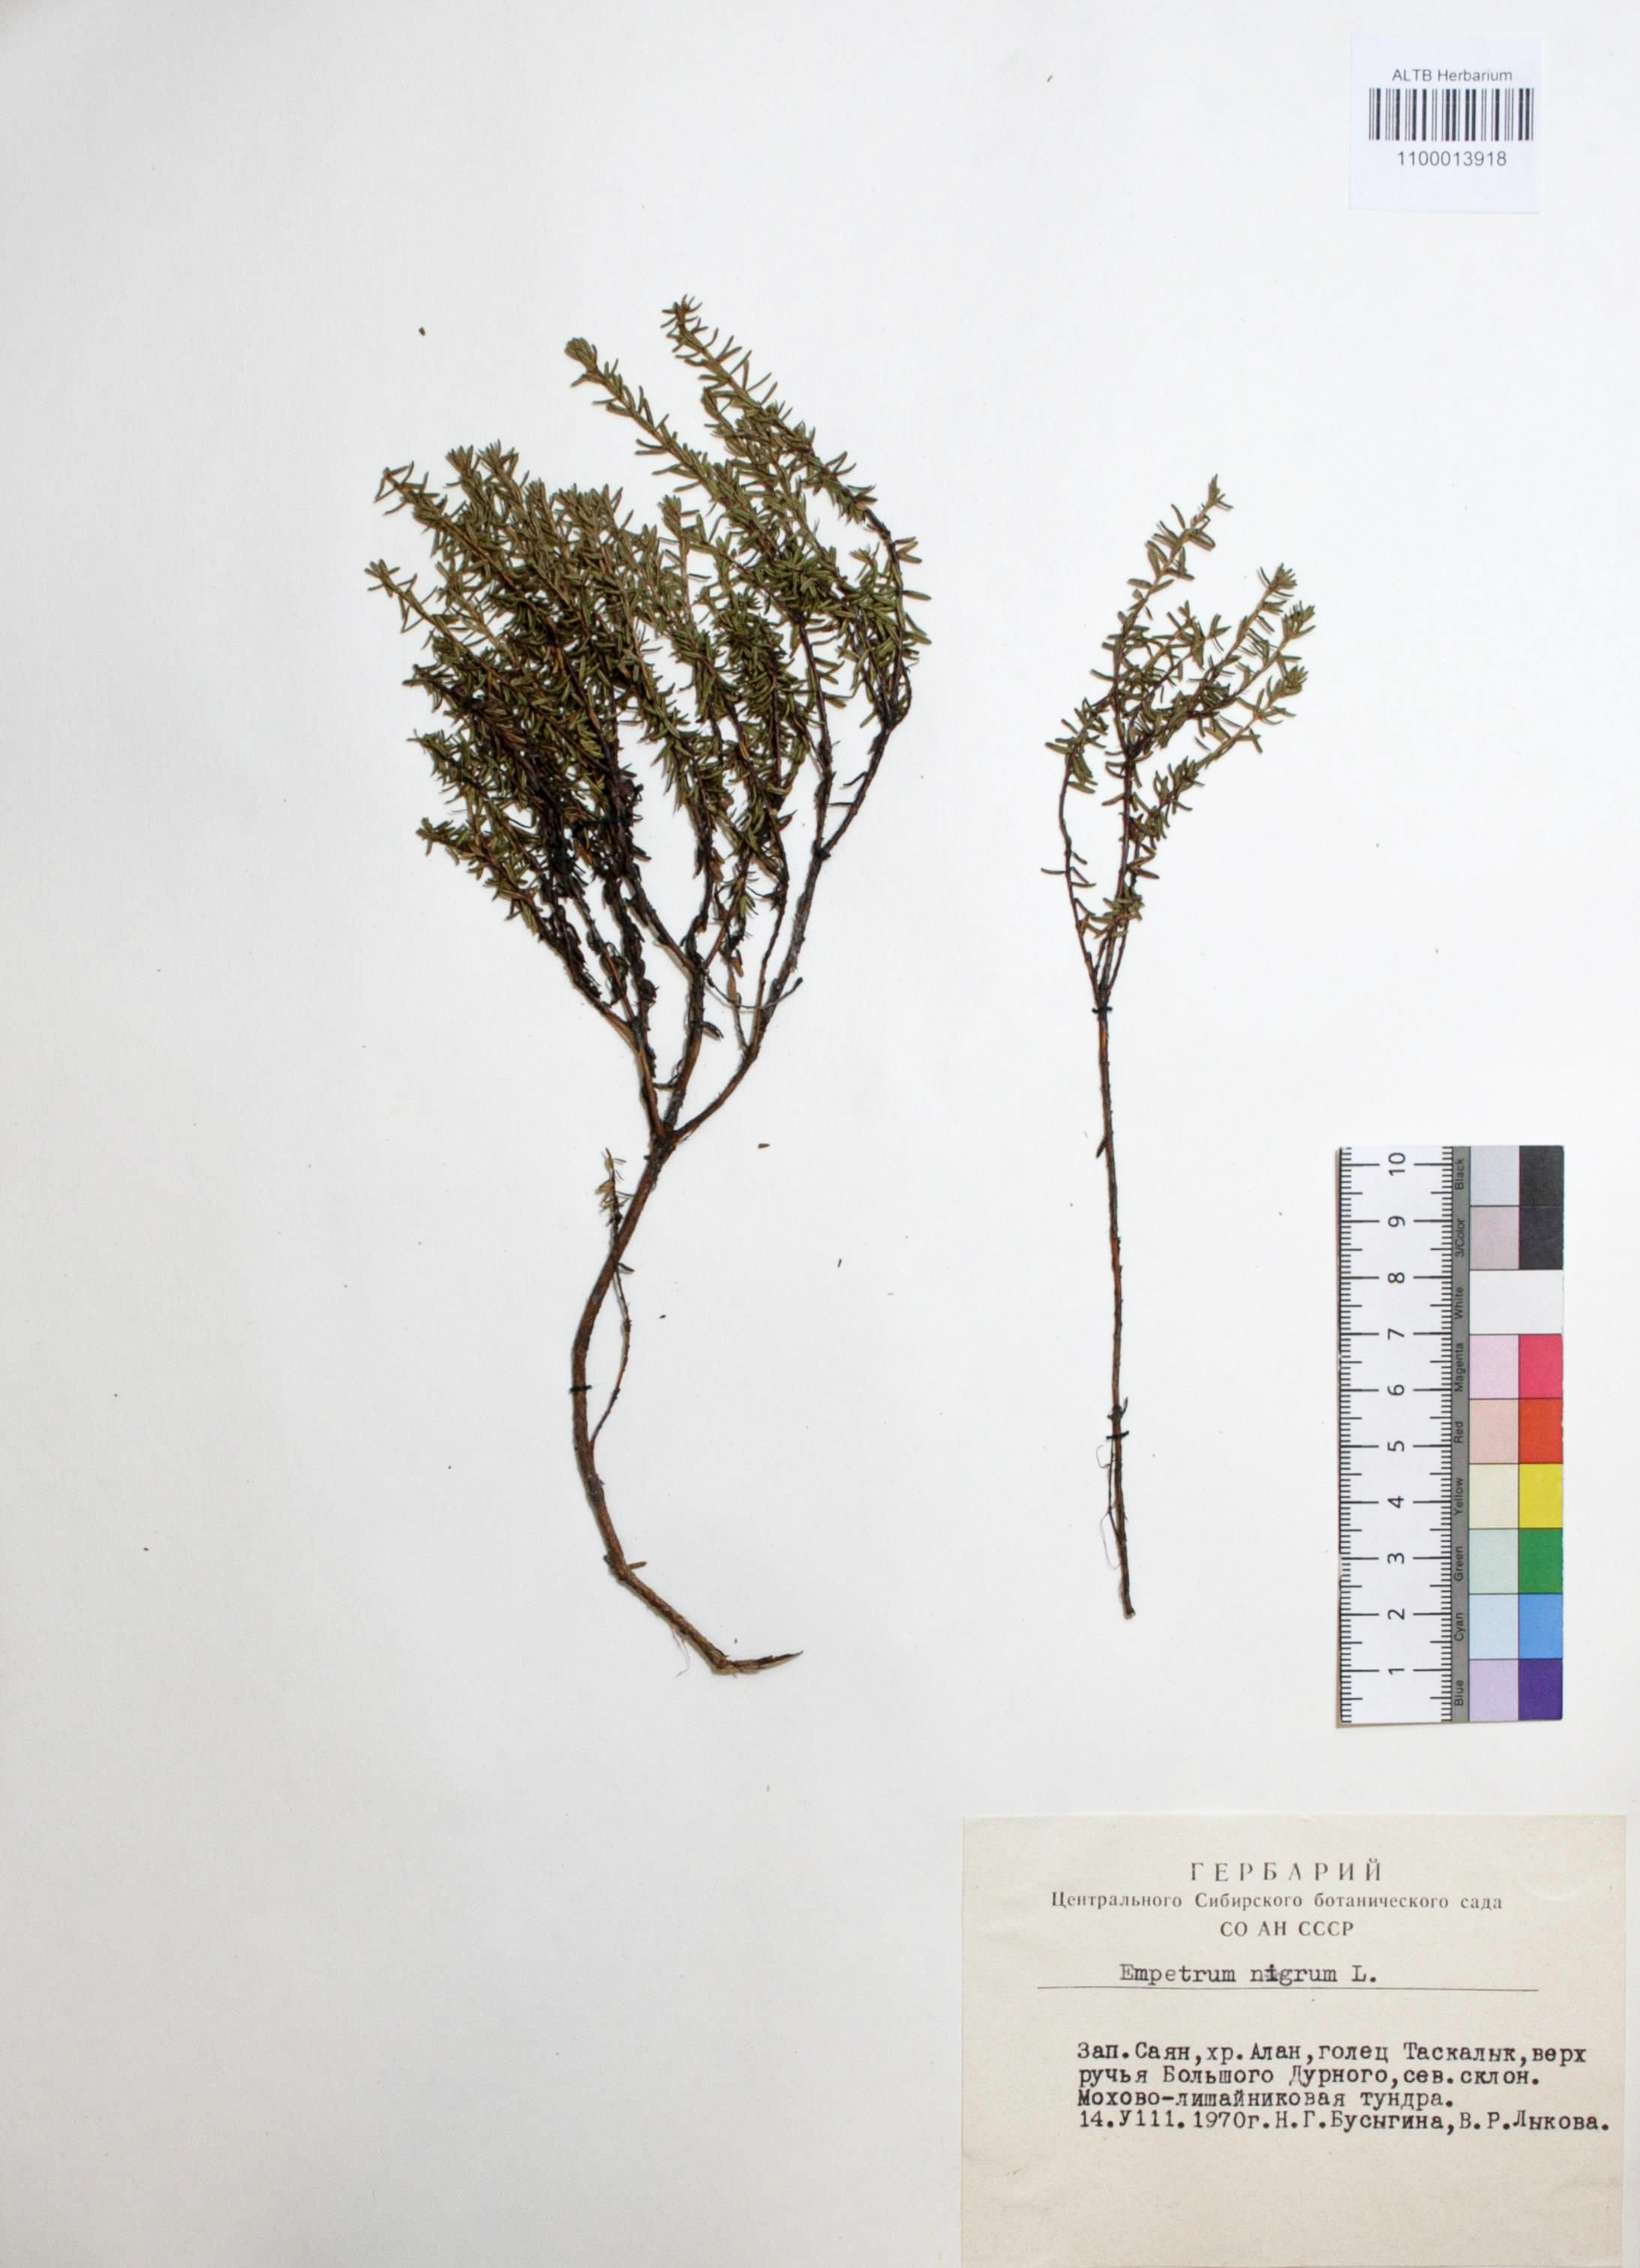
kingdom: Plantae
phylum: Tracheophyta
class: Magnoliopsida
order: Ericales
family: Ericaceae
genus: Empetrum
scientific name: Empetrum nigrum
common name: Black crowberry
